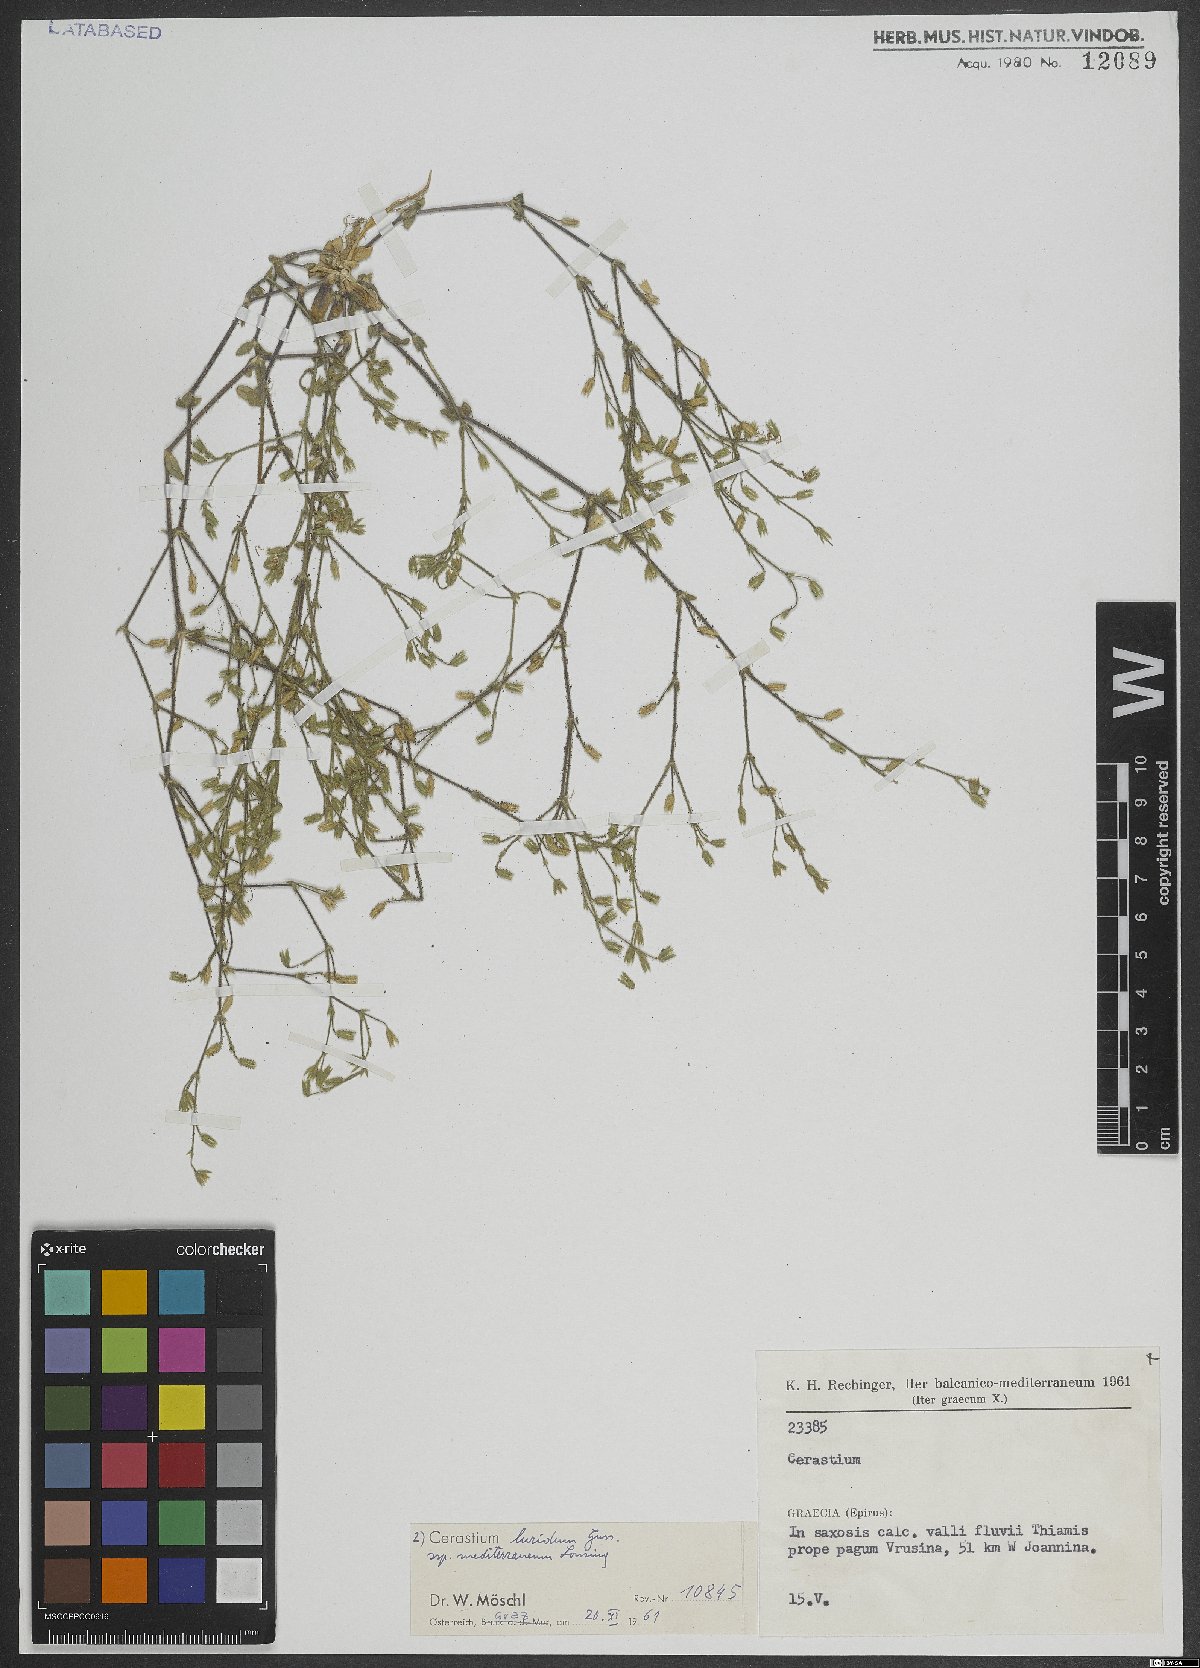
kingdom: Plantae
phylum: Tracheophyta
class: Magnoliopsida
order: Caryophyllales
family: Caryophyllaceae
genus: Cerastium
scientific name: Cerastium brachypetalum
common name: Grey mouse-ear
